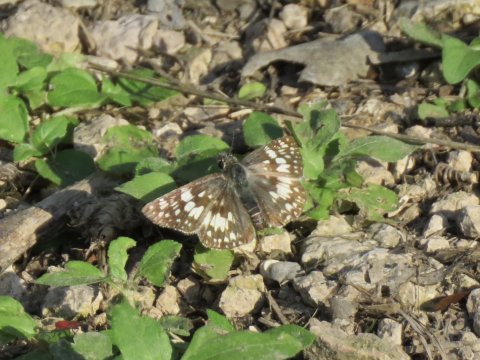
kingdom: Animalia
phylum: Arthropoda
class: Insecta
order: Lepidoptera
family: Hesperiidae
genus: Pyrgus
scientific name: Pyrgus communis
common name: White Checkered-Skipper
